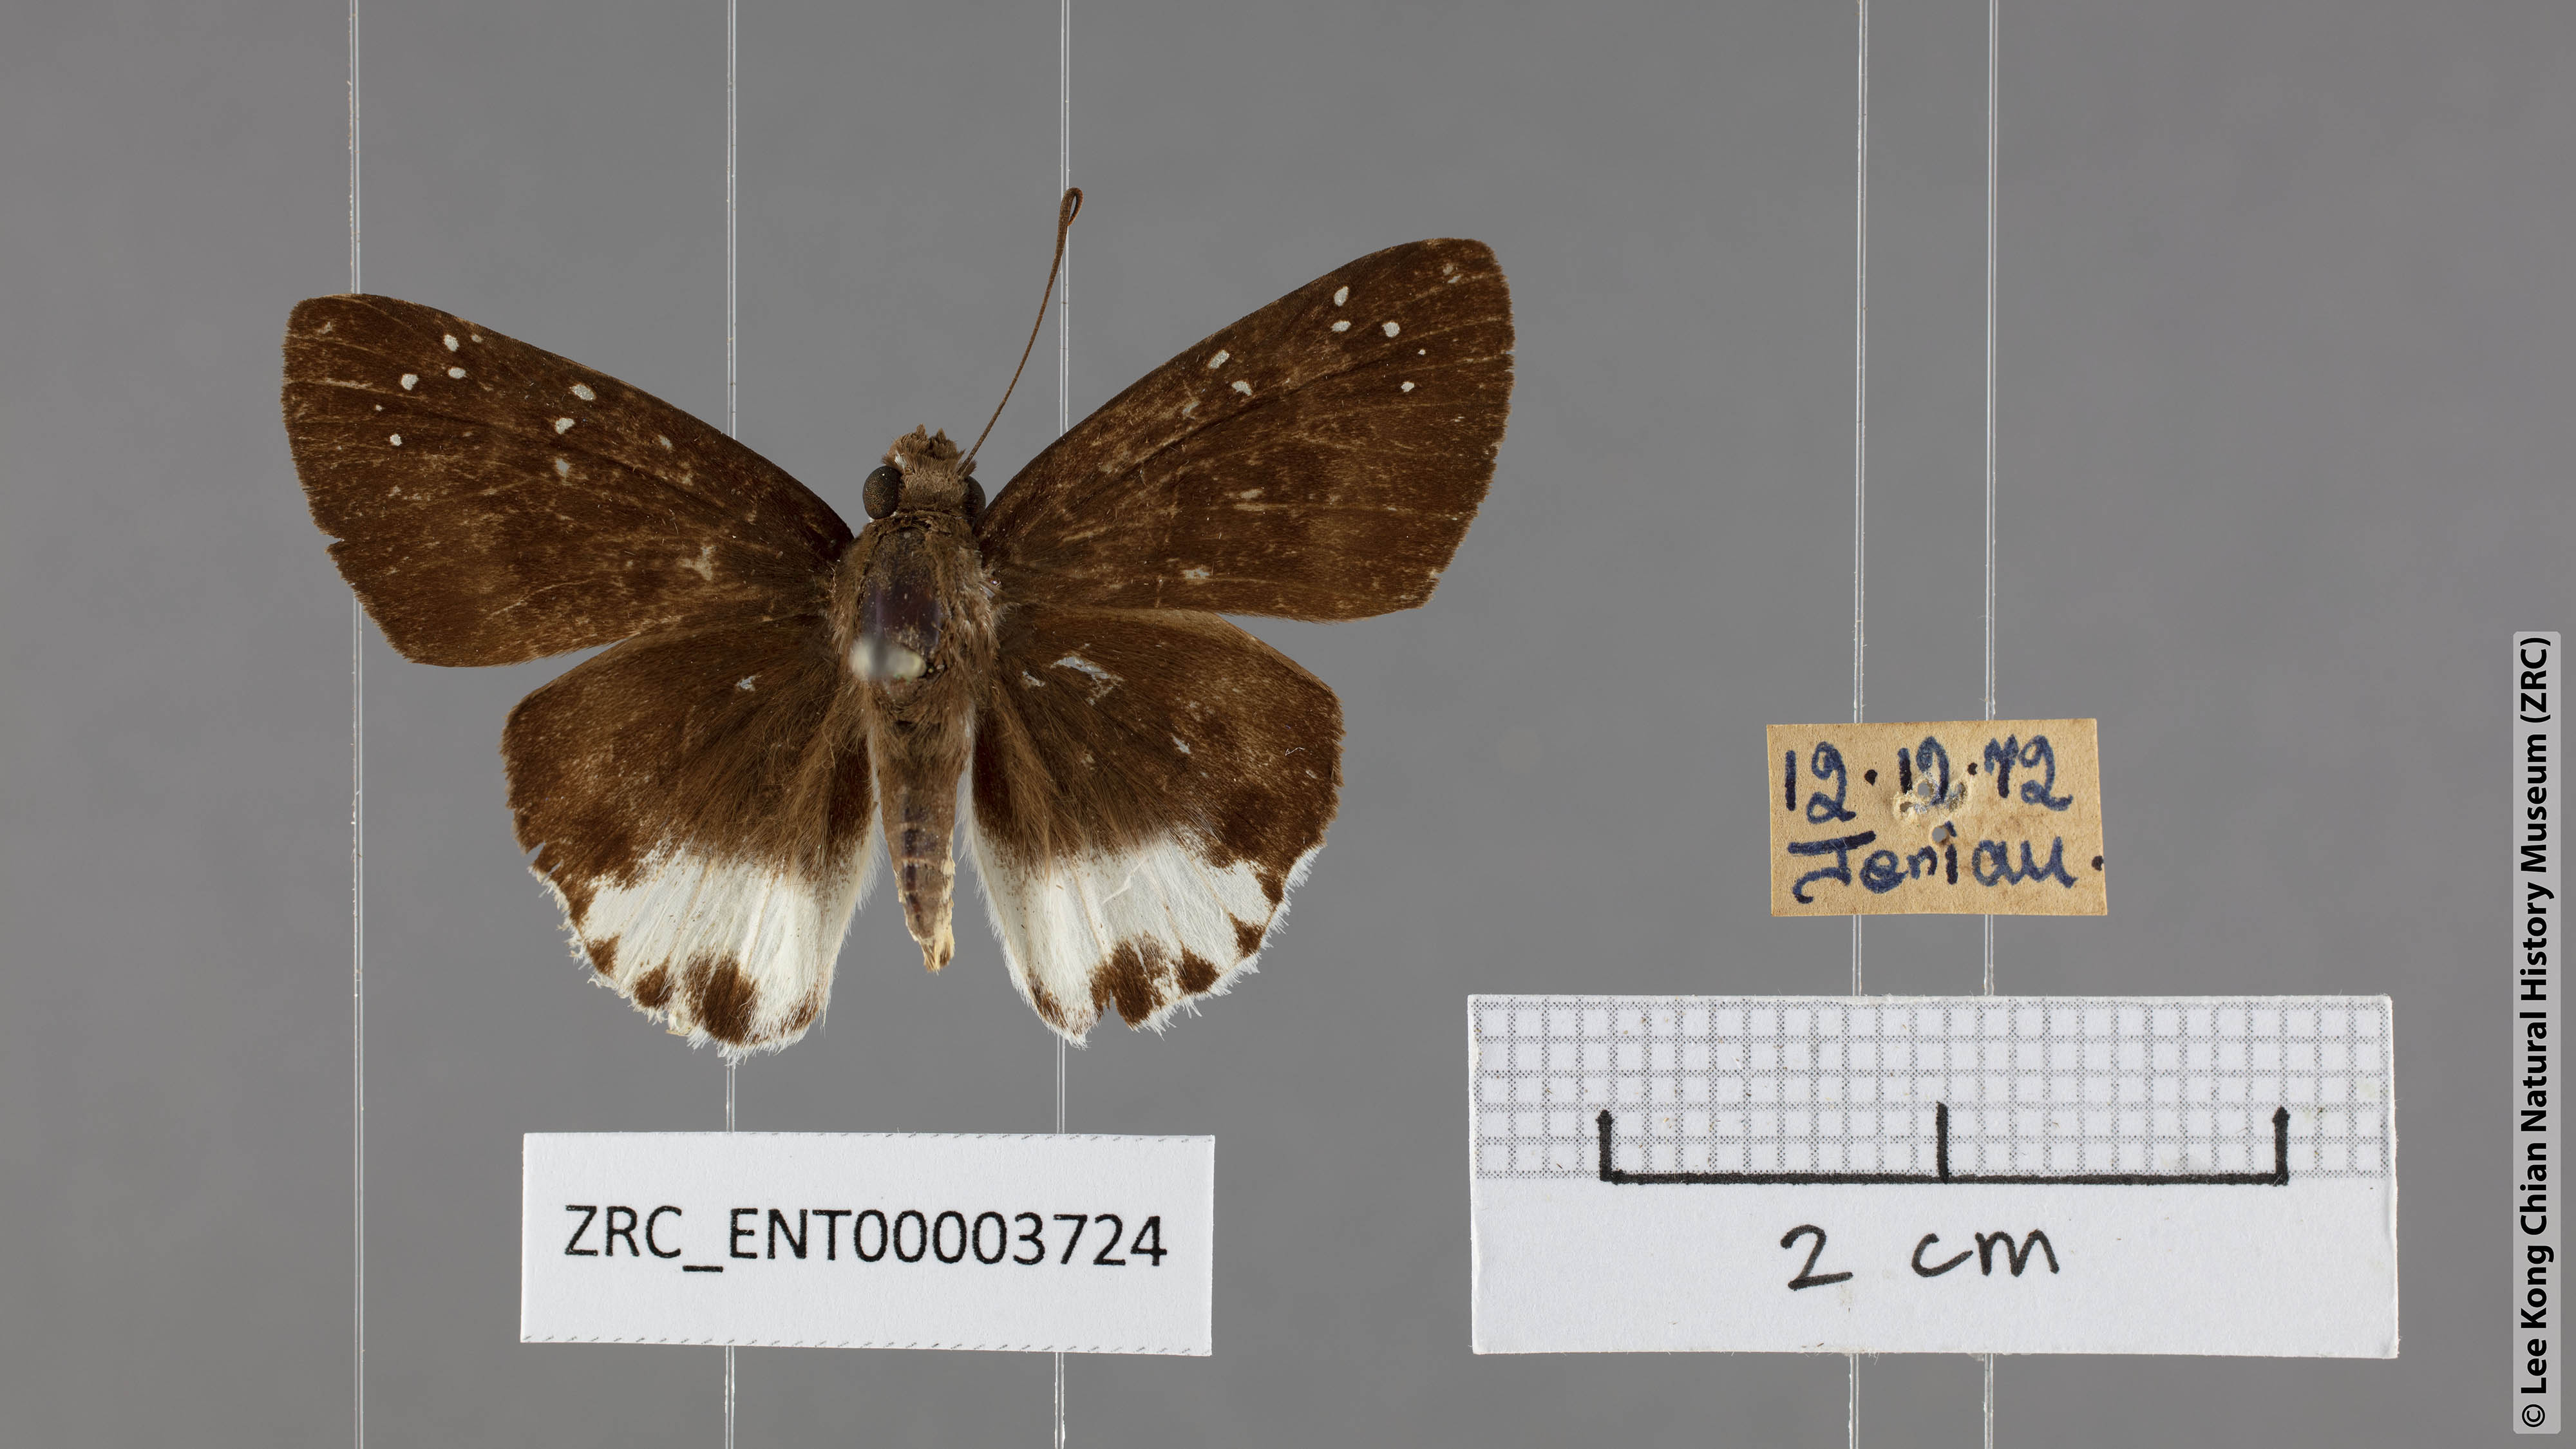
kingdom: Animalia
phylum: Arthropoda
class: Insecta
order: Lepidoptera
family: Hesperiidae
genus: Tagiades
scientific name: Tagiades waterstradti
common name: Waterstradt snow flat
